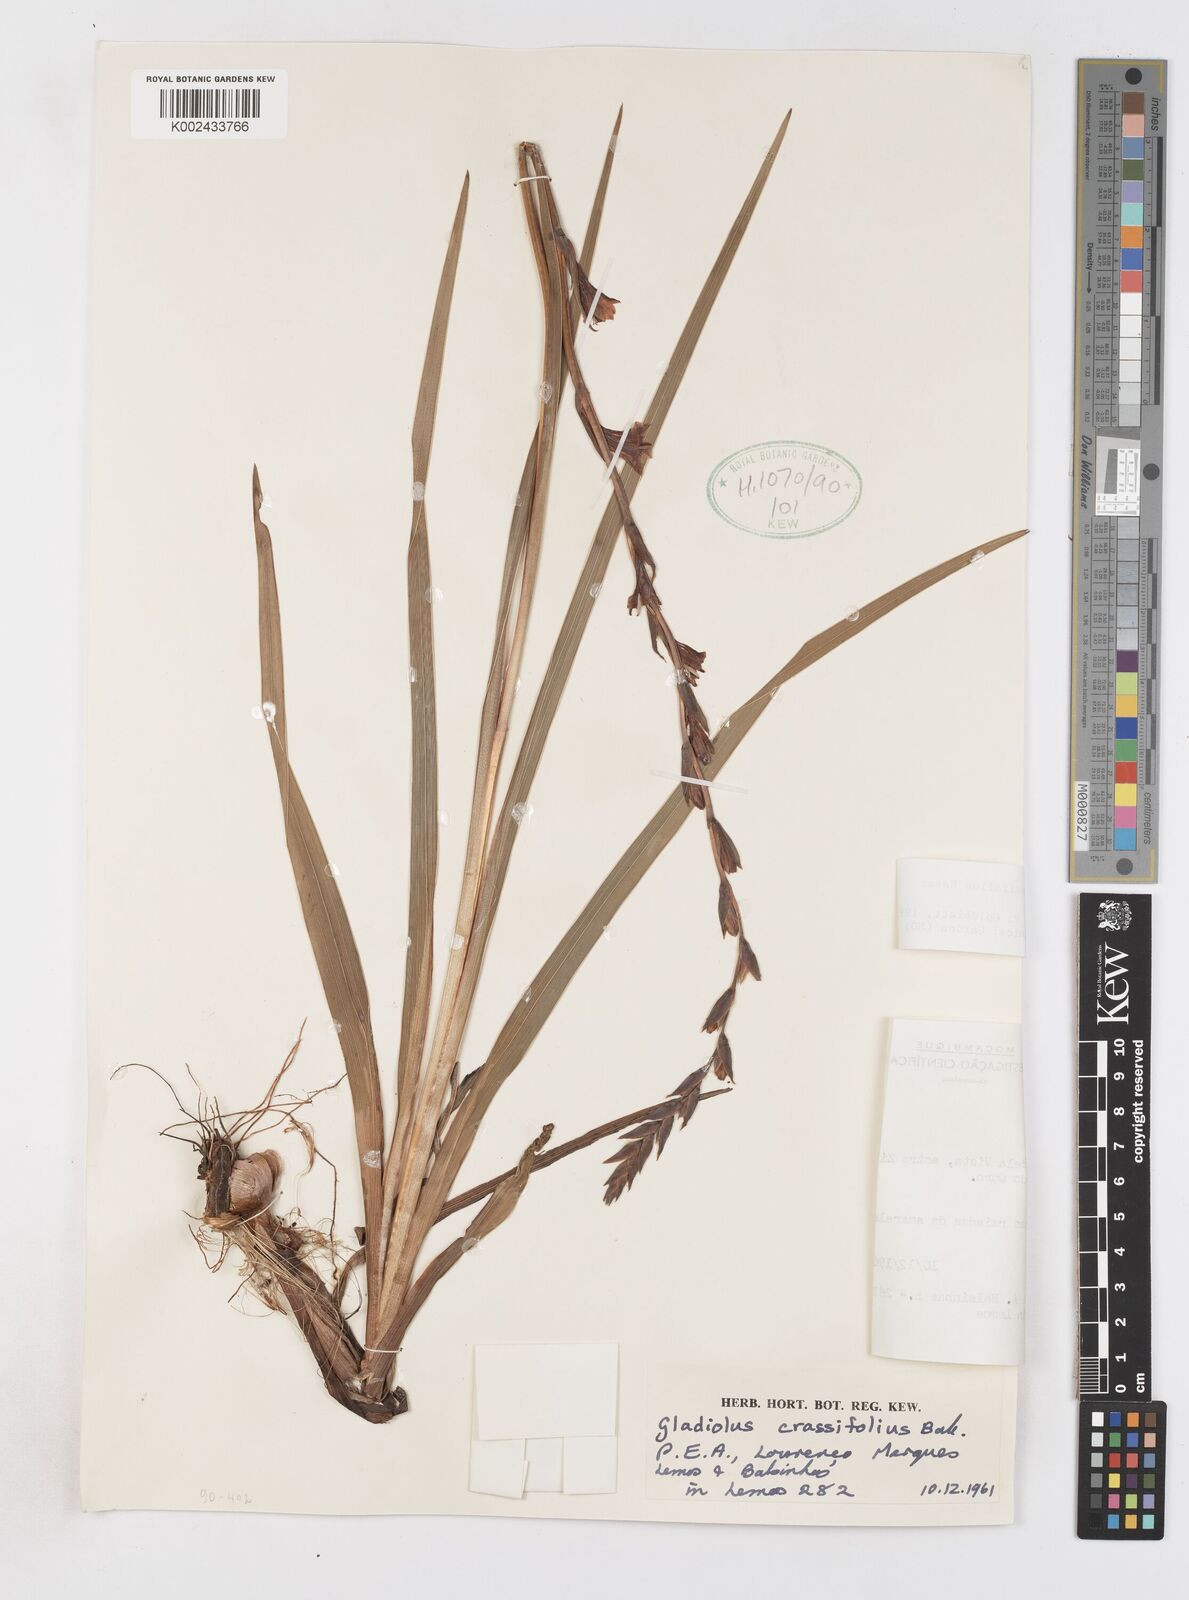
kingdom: Plantae
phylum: Tracheophyta
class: Liliopsida
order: Asparagales
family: Iridaceae
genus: Gladiolus
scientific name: Gladiolus crassifolius
